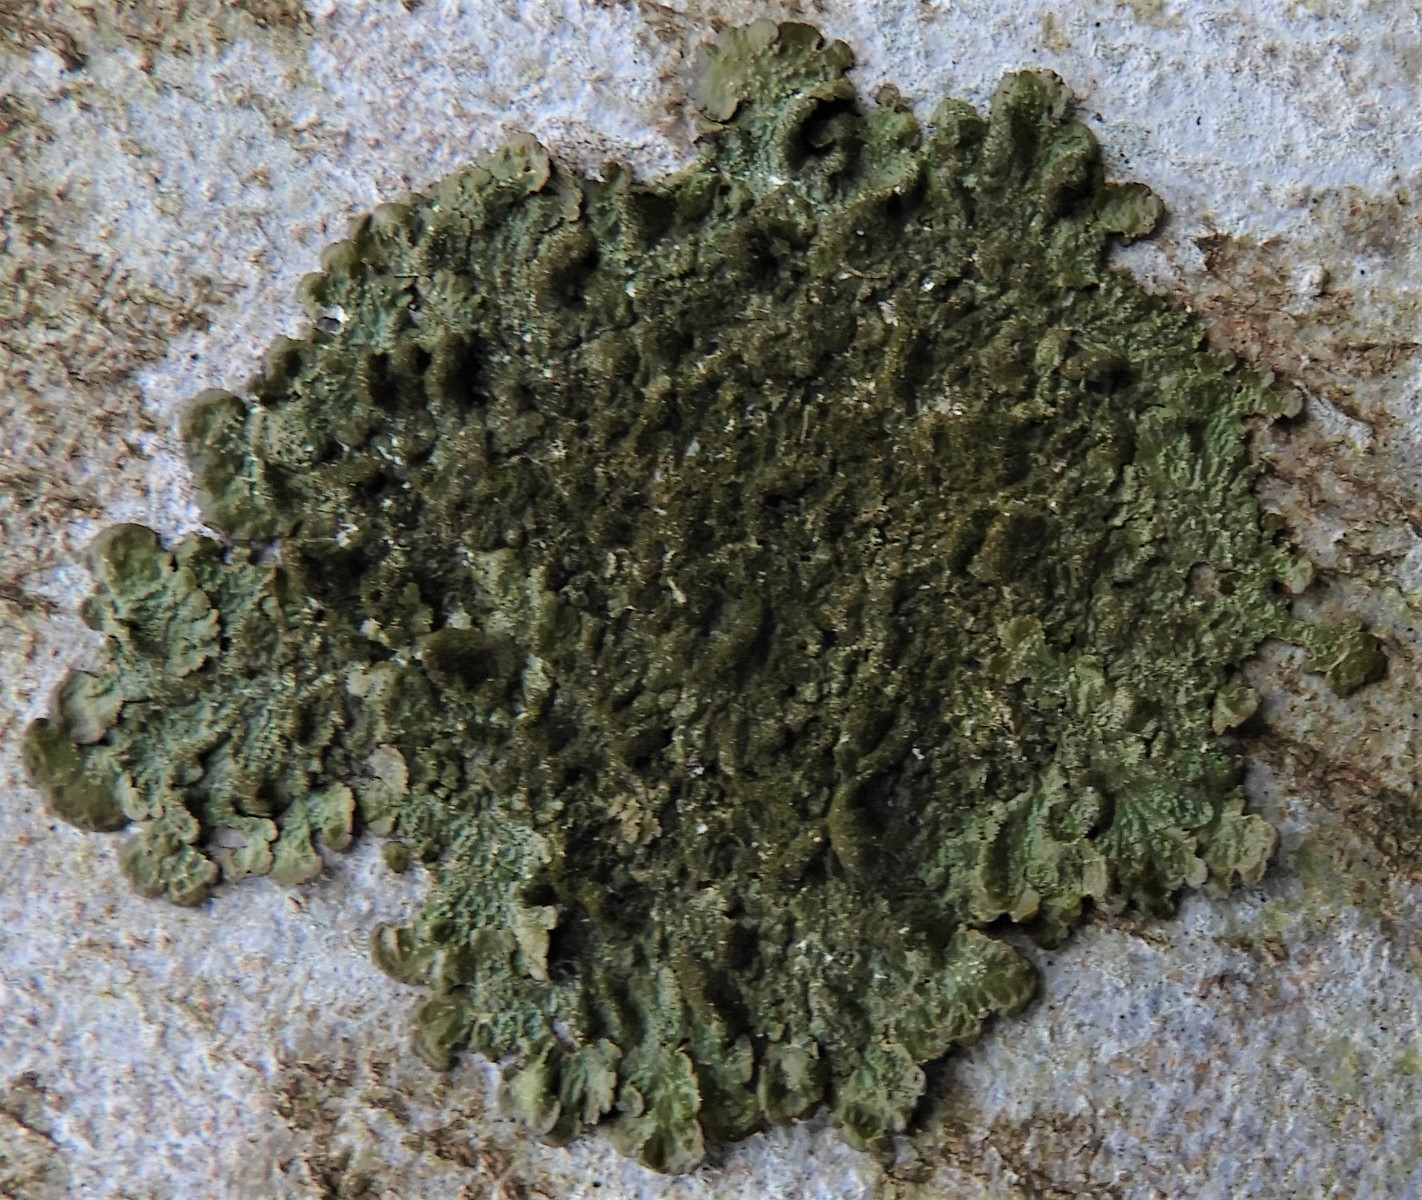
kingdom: Fungi
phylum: Ascomycota
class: Lecanoromycetes
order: Lecanorales
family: Parmeliaceae
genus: Melanelixia
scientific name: Melanelixia subaurifera
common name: guldpudret skållav
